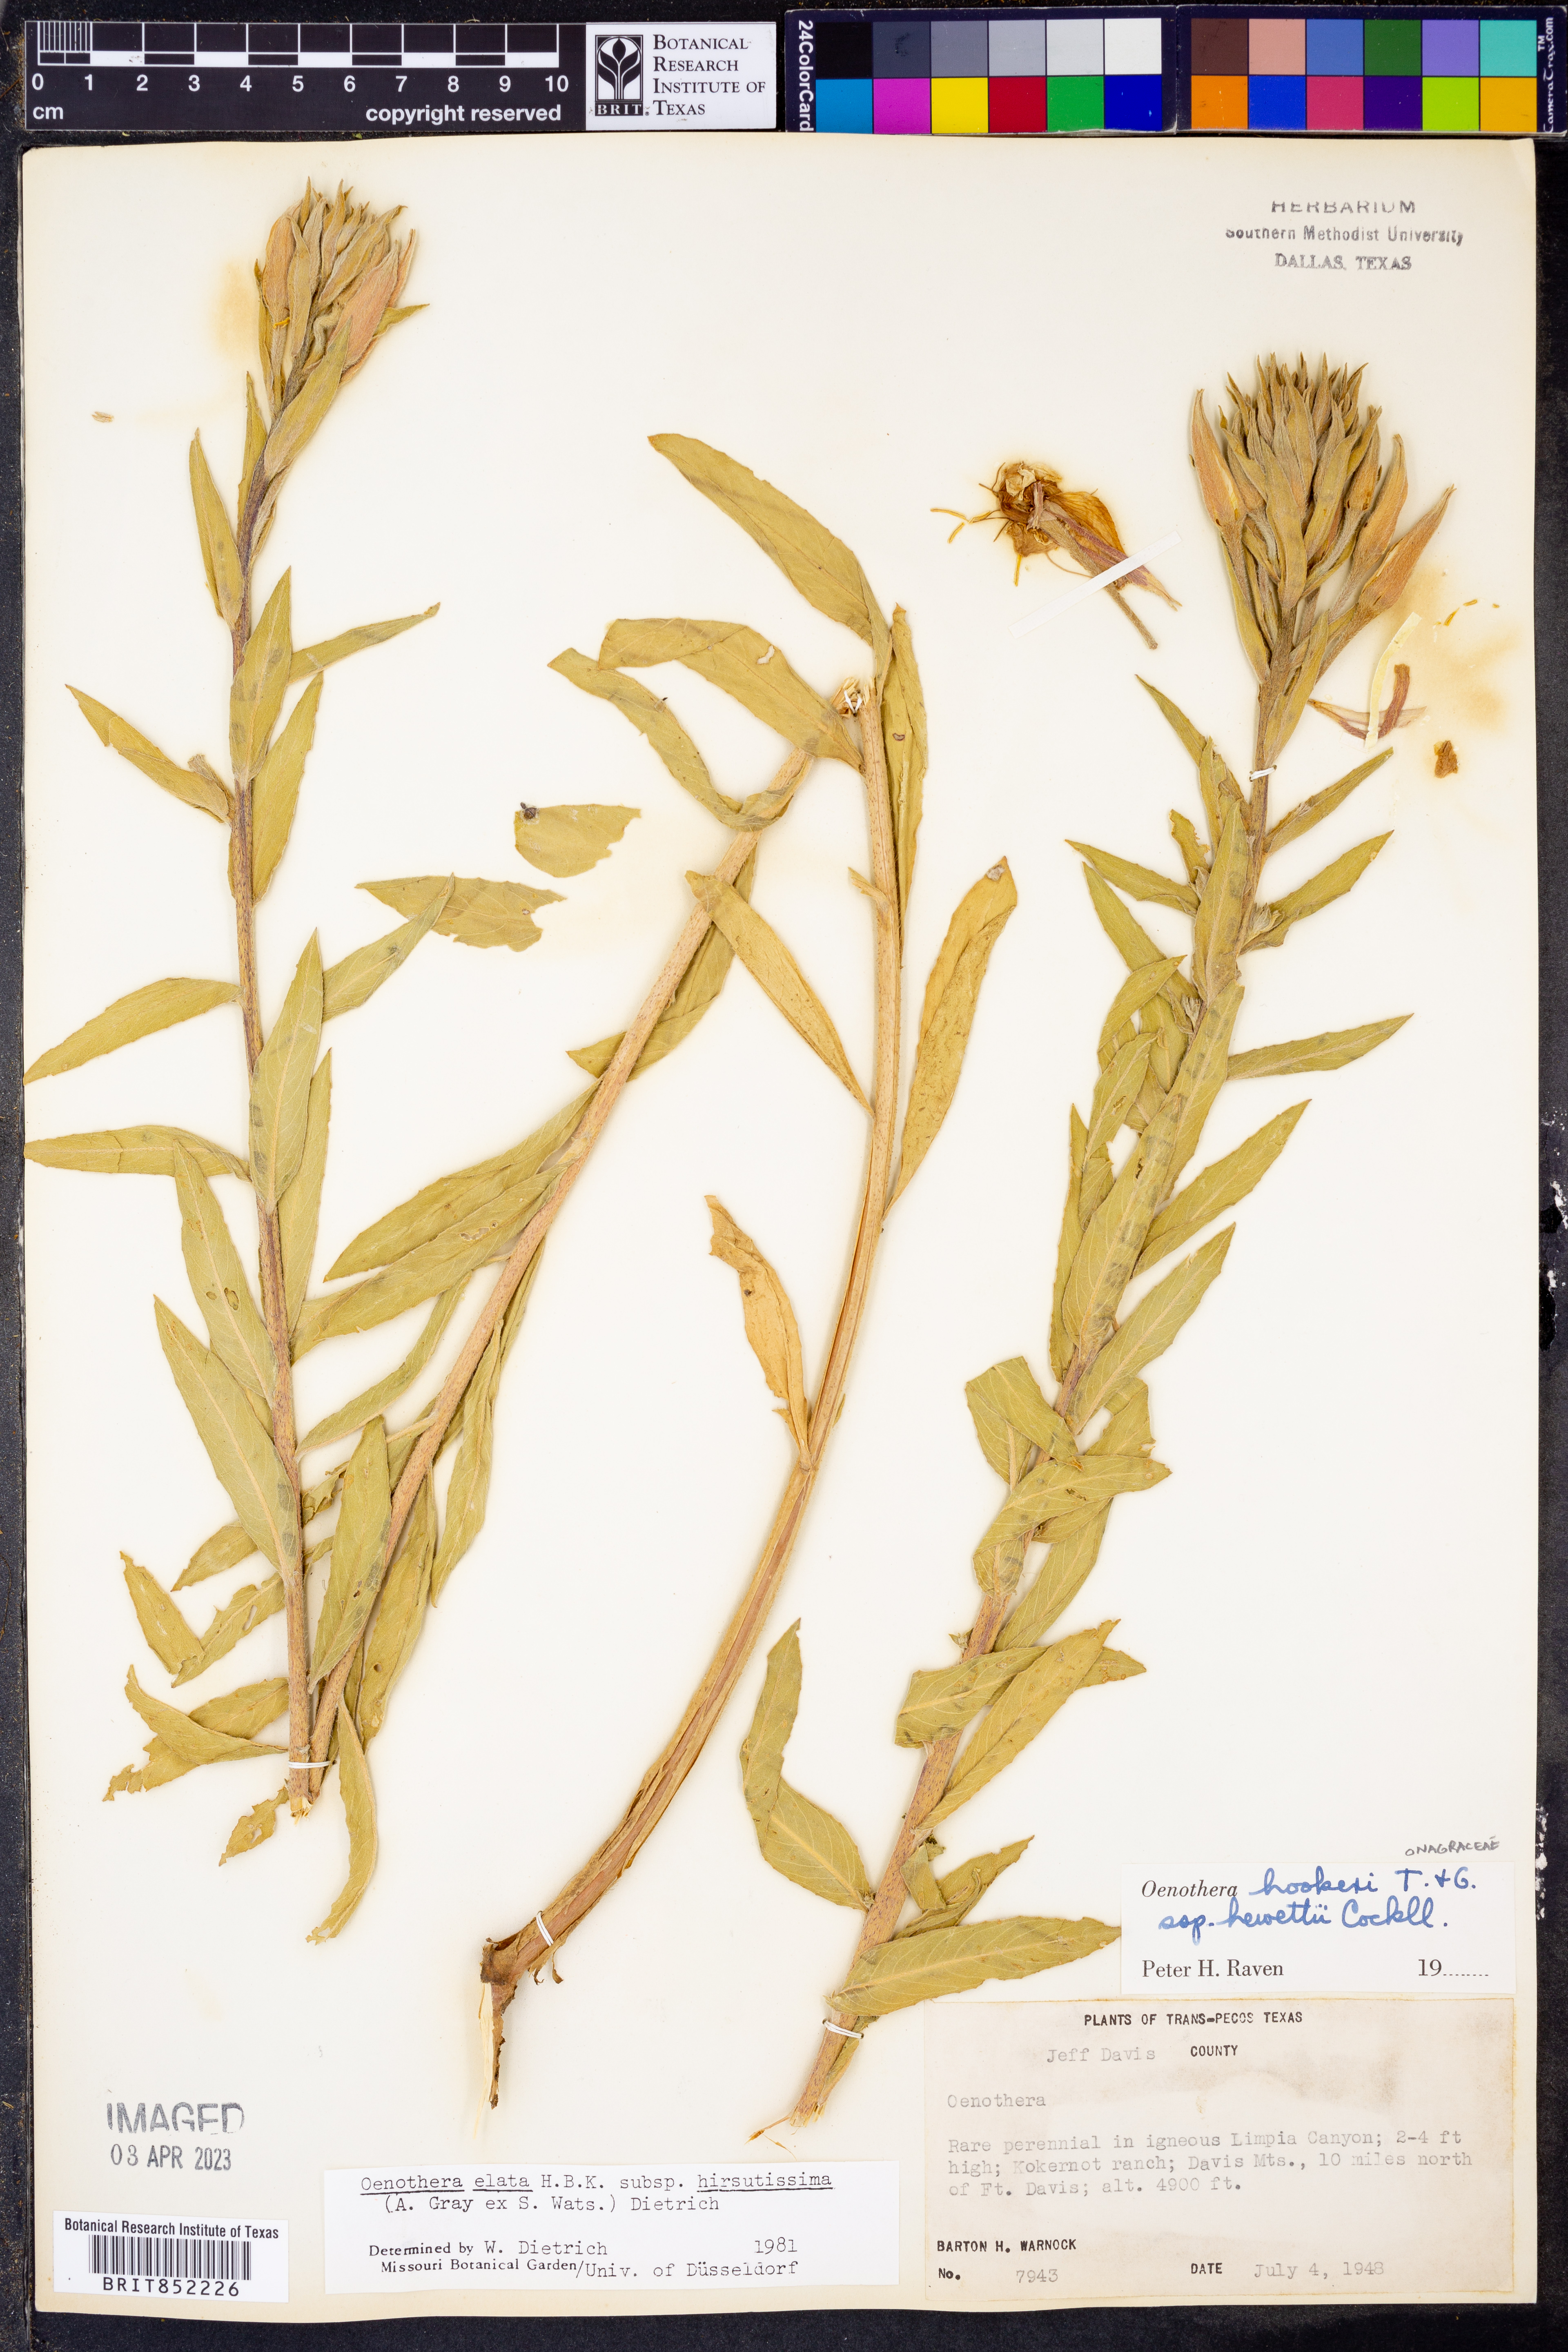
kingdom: Plantae
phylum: Tracheophyta
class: Magnoliopsida
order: Myrtales
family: Onagraceae
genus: Oenothera
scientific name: Oenothera elata
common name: Hooker's evening-primrose
